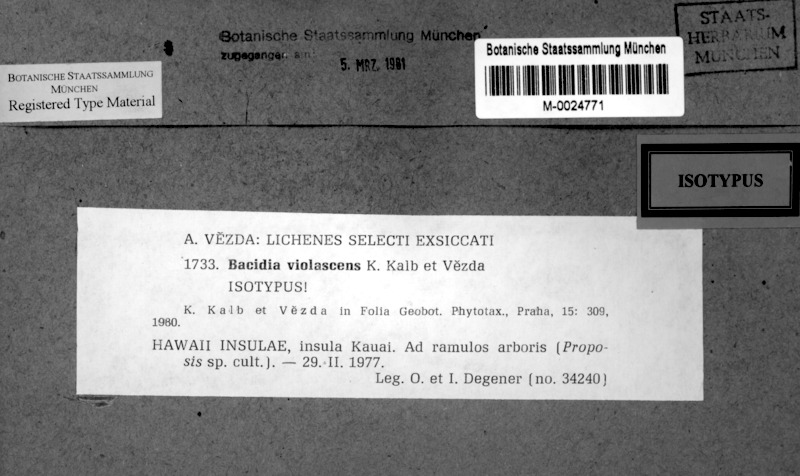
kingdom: Fungi
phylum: Ascomycota
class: Lecanoromycetes
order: Lecanorales
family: Ramalinaceae
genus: Mycobilimbia
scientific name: Mycobilimbia violascens
